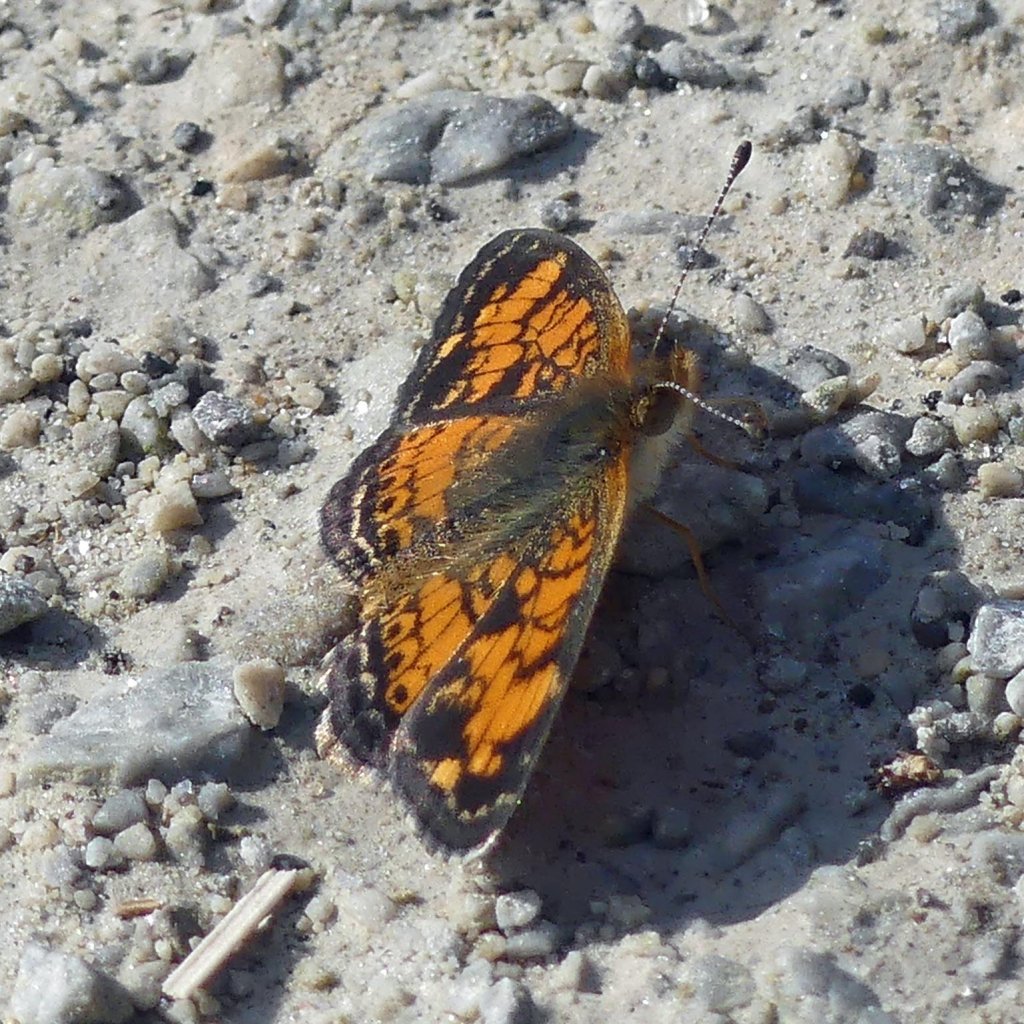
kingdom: Animalia
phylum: Arthropoda
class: Insecta
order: Lepidoptera
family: Nymphalidae
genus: Phyciodes
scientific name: Phyciodes tharos
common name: Pearl Crescent
